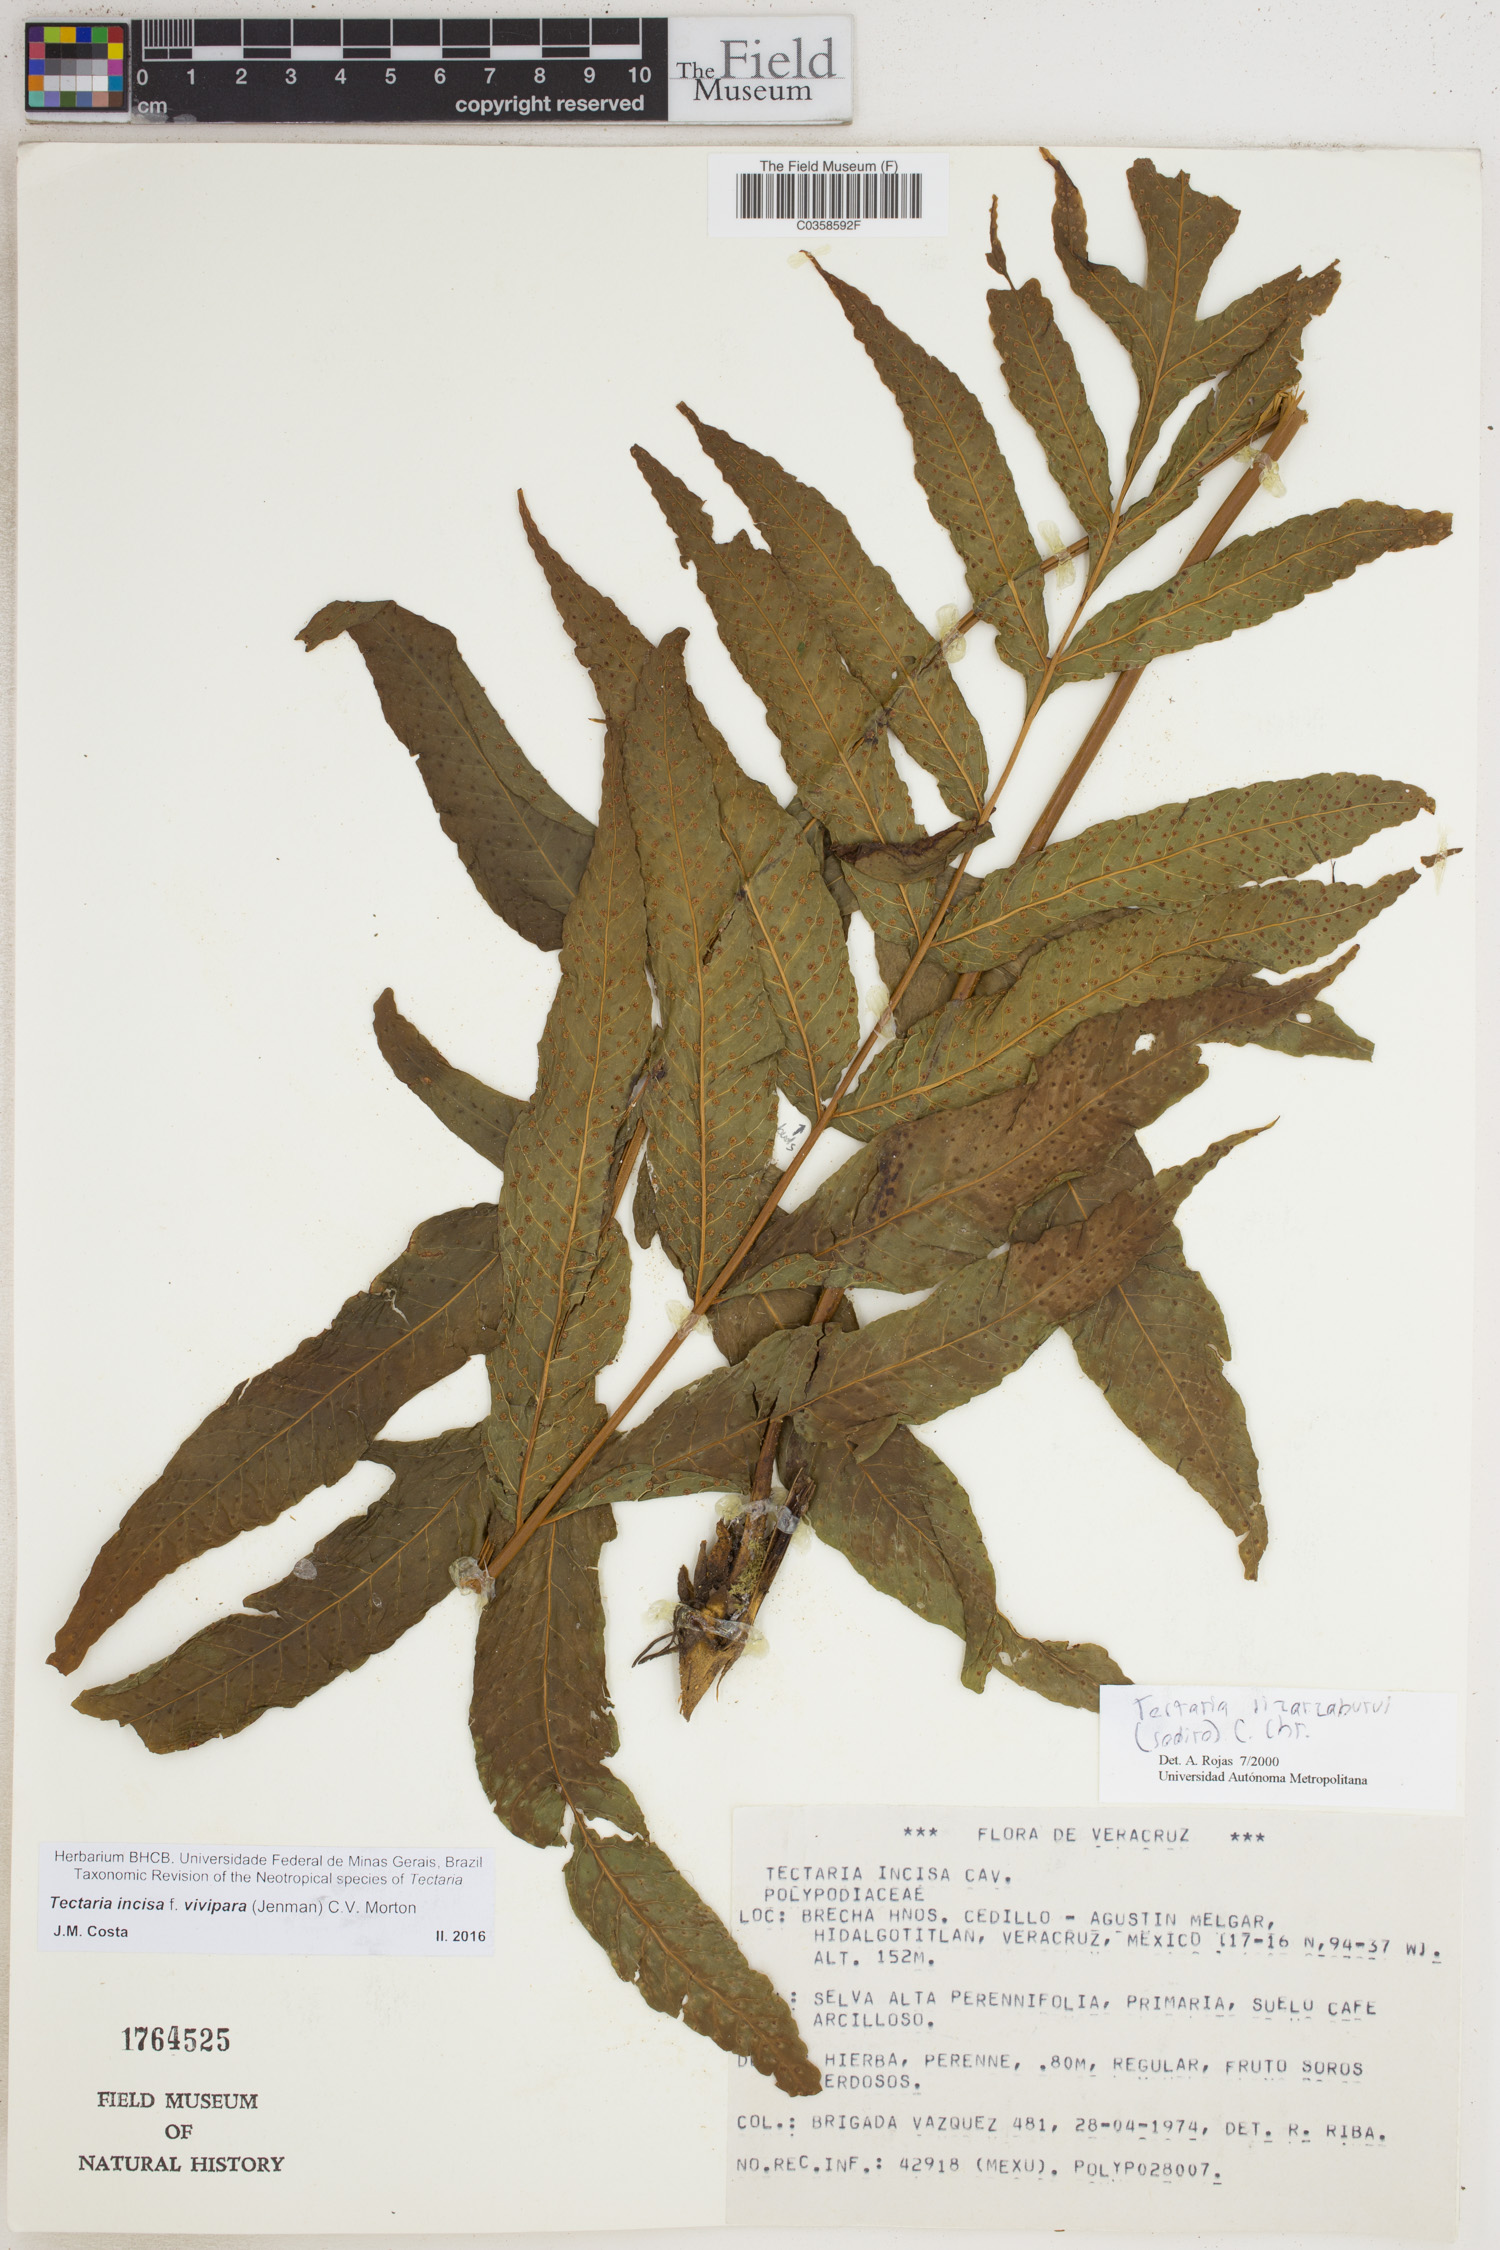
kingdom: Plantae
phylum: Tracheophyta
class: Polypodiopsida
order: Polypodiales
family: Tectariaceae
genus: Tectaria
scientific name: Tectaria incisa
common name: Incised halberd fern
